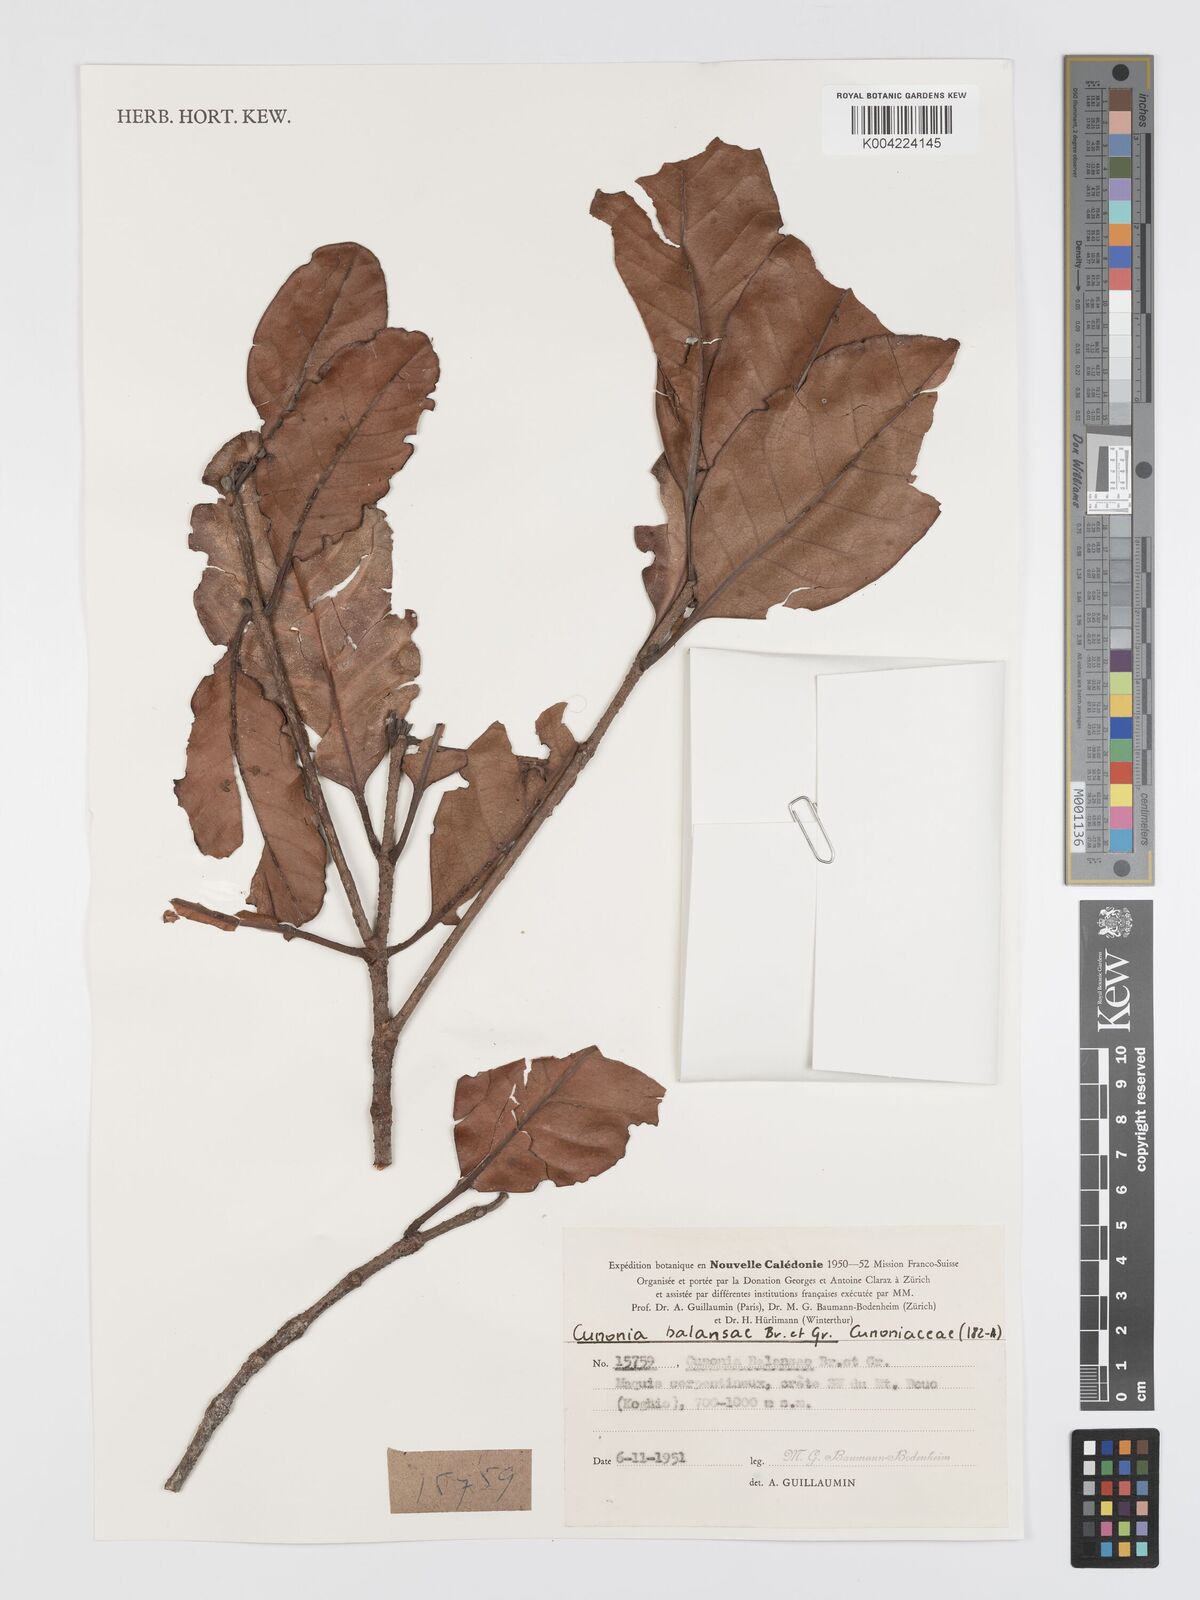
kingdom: Plantae
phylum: Tracheophyta
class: Magnoliopsida
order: Oxalidales
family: Cunoniaceae
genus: Cunonia
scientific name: Cunonia balansae
